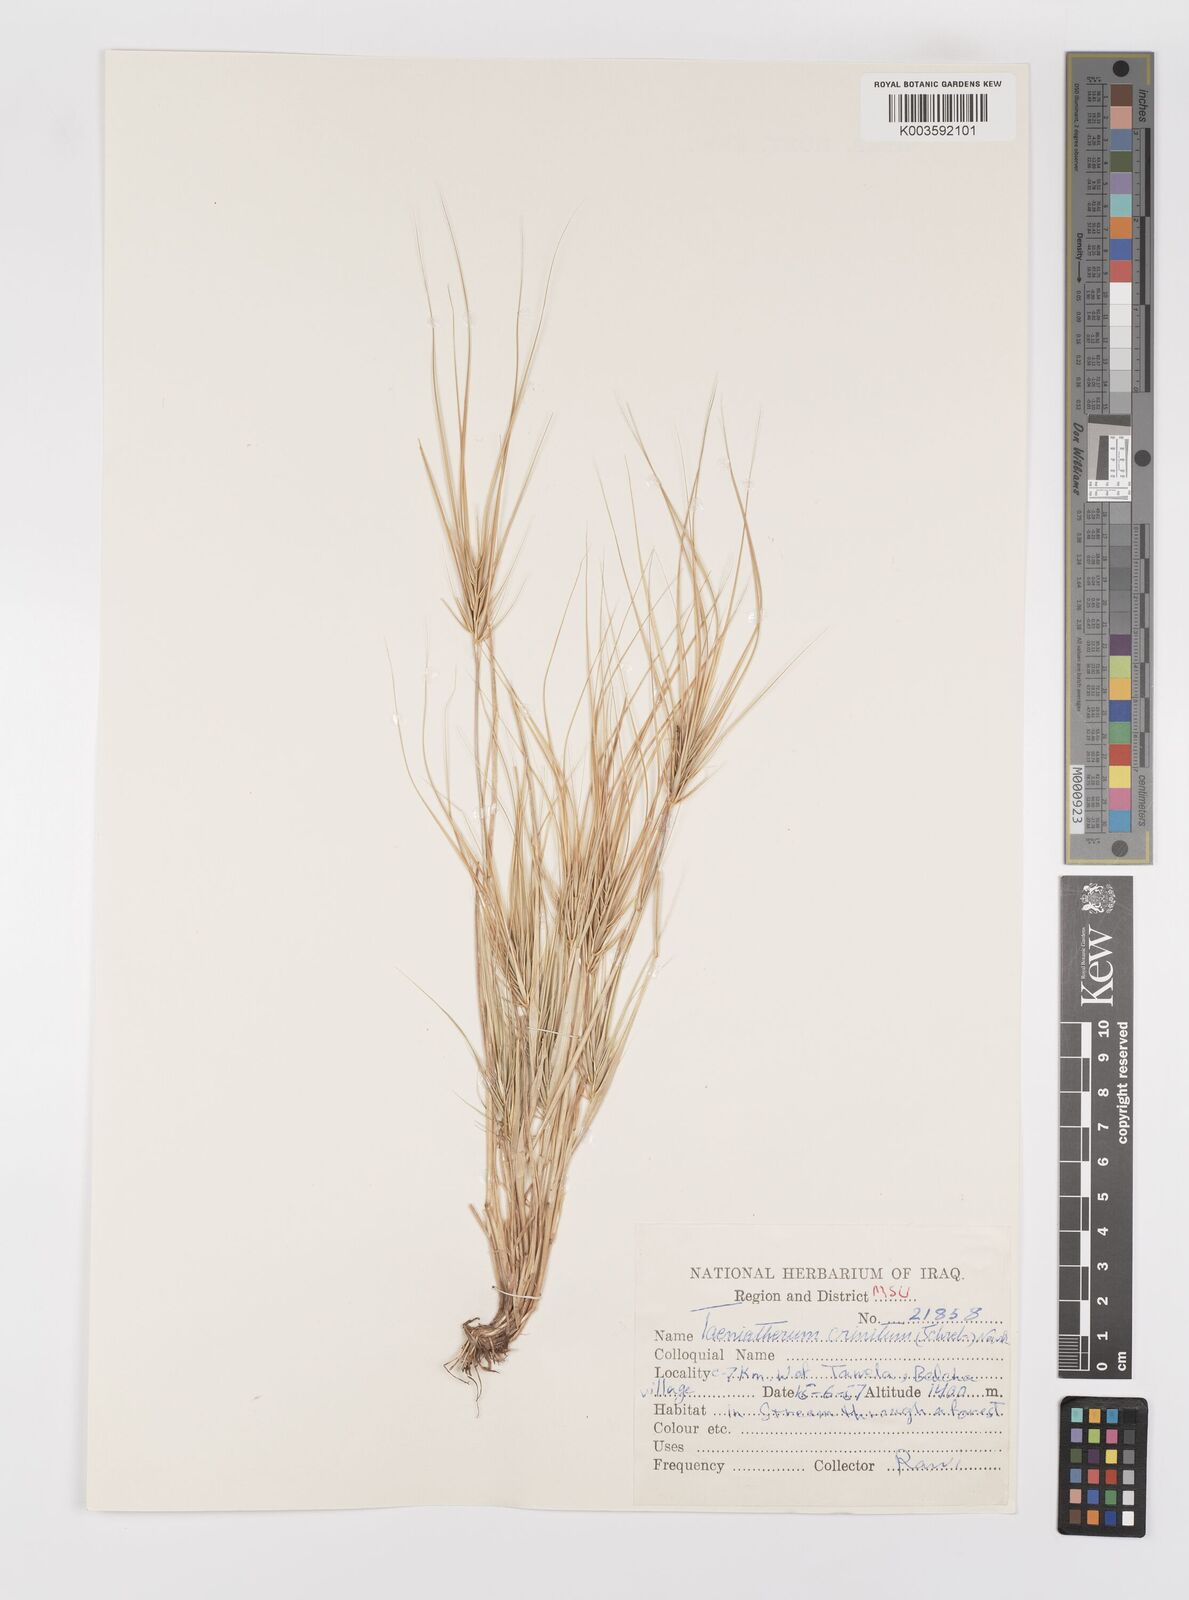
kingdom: Plantae
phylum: Tracheophyta
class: Liliopsida
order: Poales
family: Poaceae
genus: Taeniatherum
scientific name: Taeniatherum caput-medusae
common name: Medusahead
